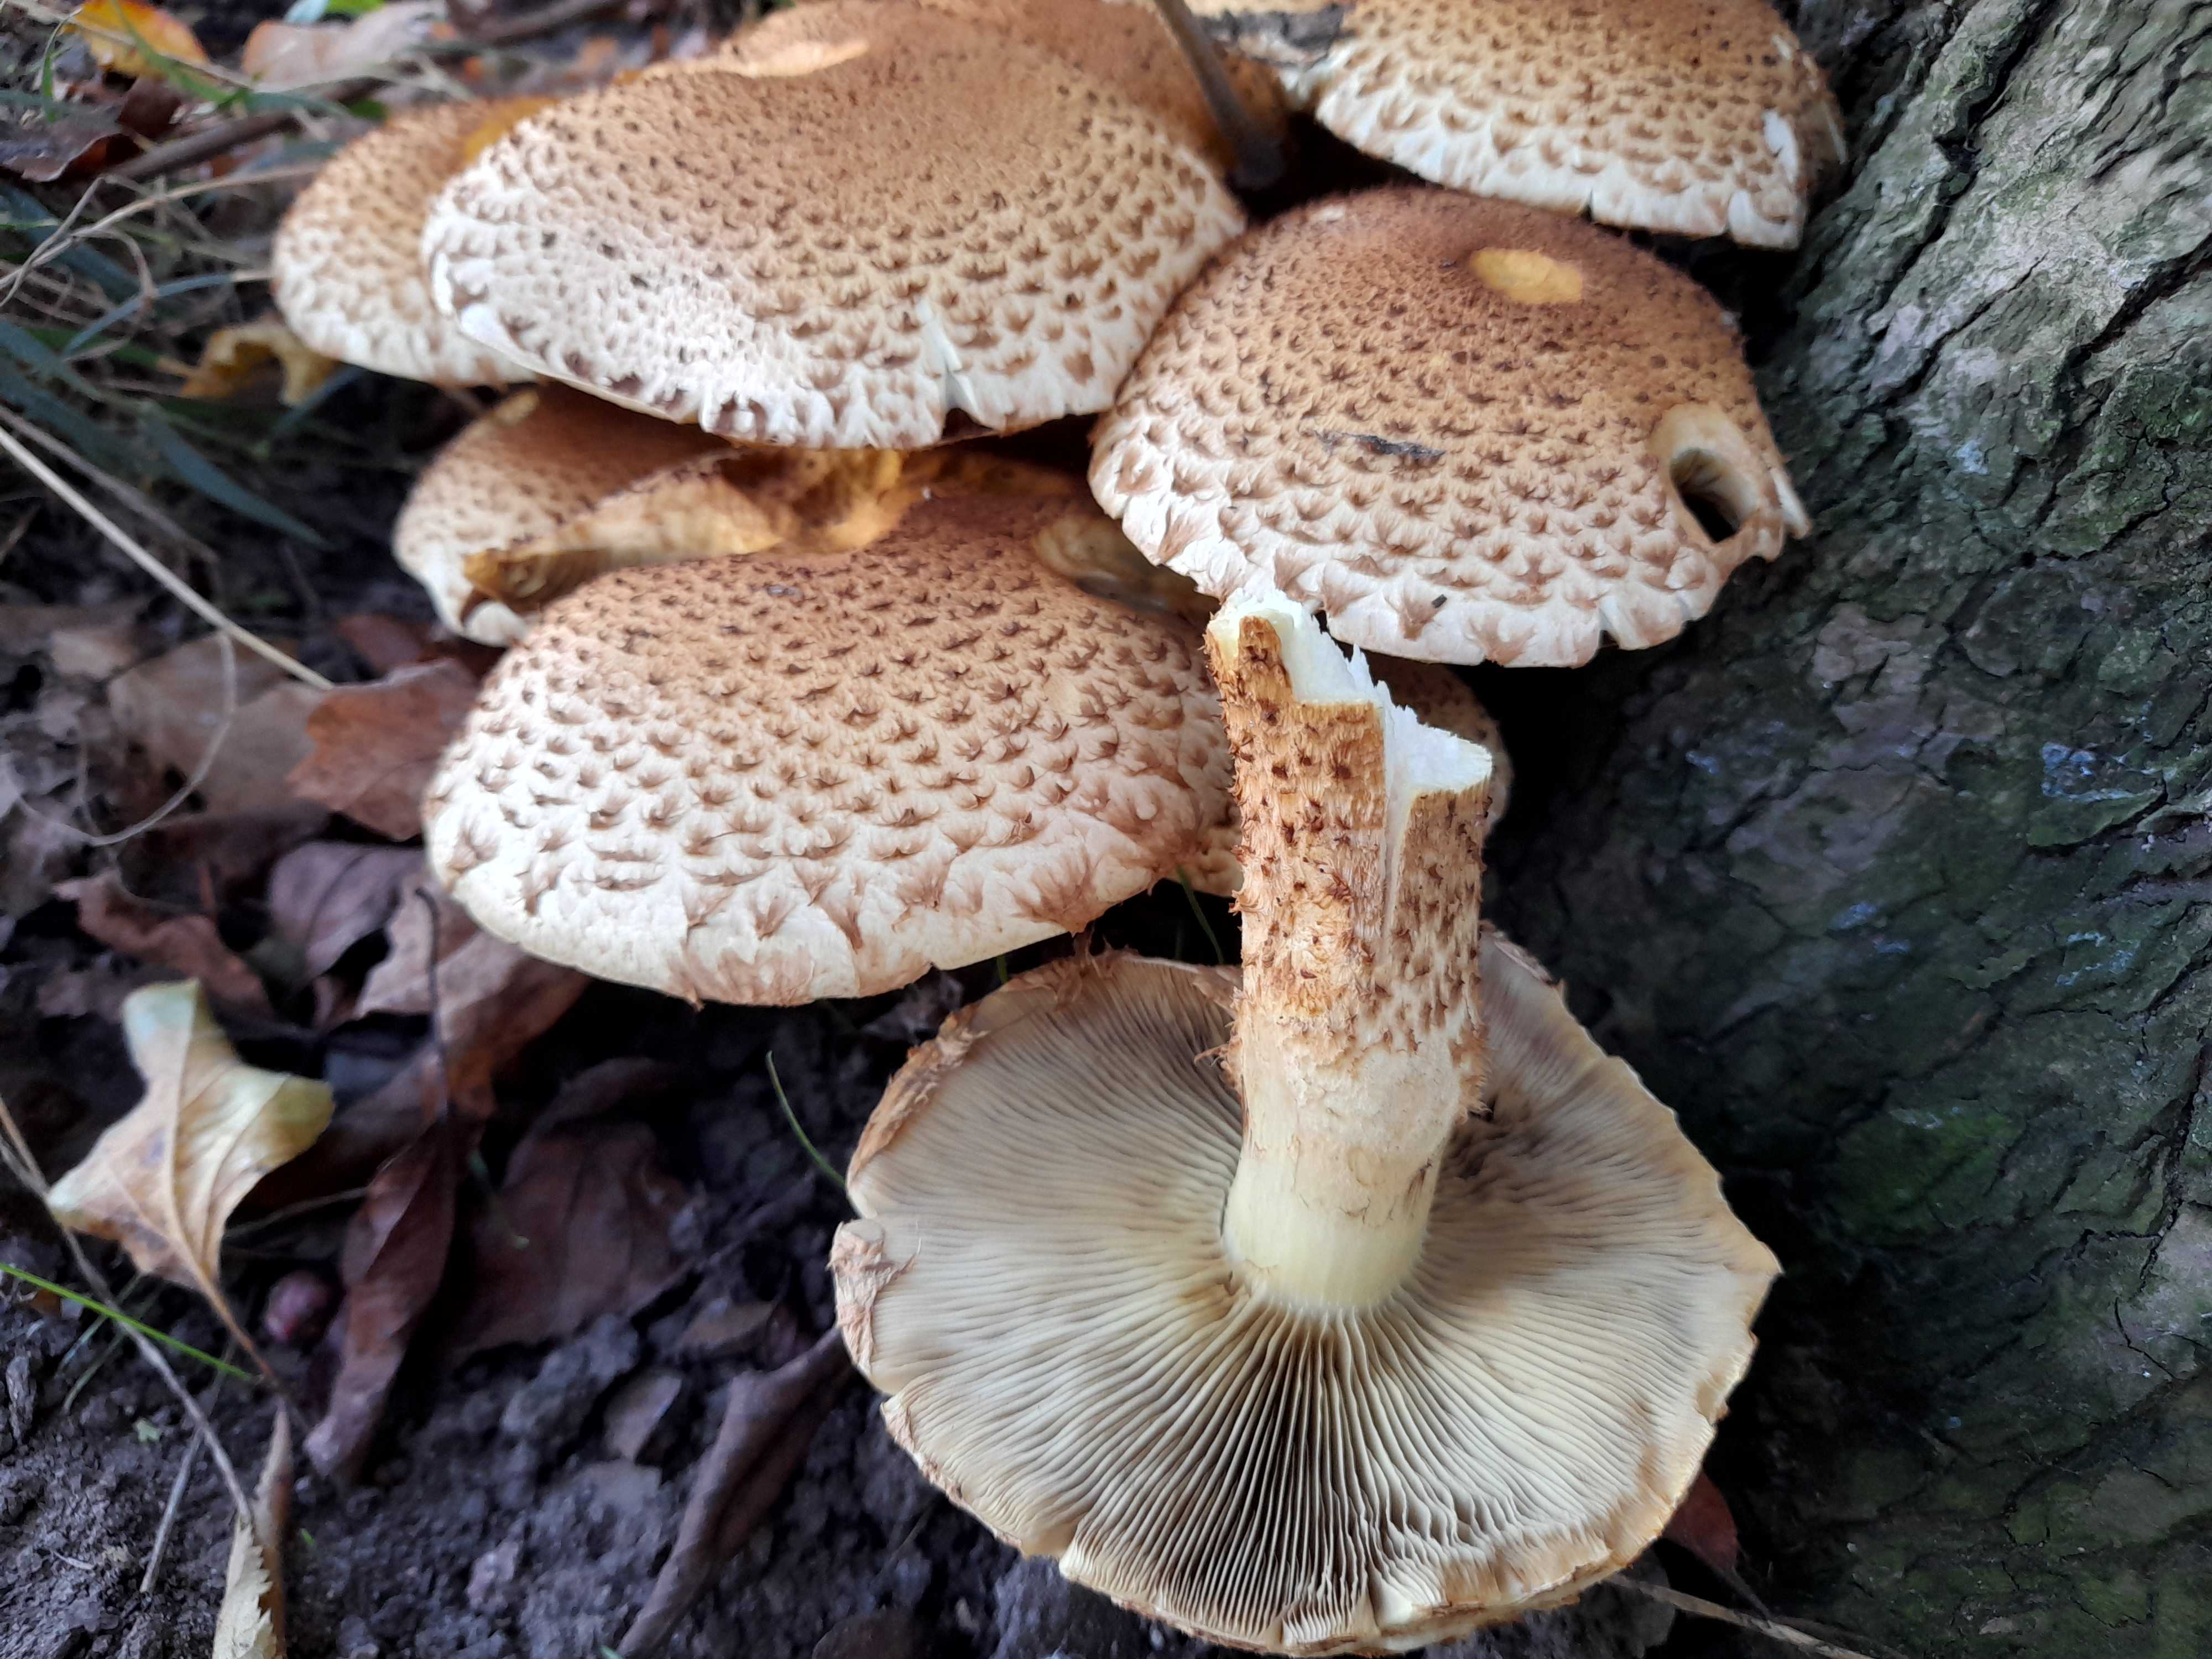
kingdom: Fungi
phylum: Basidiomycota
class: Agaricomycetes
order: Agaricales
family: Strophariaceae
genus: Pholiota
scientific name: Pholiota squarrosa
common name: krumskællet skælhat
